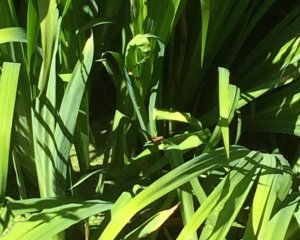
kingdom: Animalia
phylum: Arthropoda
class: Insecta
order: Lepidoptera
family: Hesperiidae
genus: Hylephila
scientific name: Hylephila phyleus
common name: Fiery Skipper
